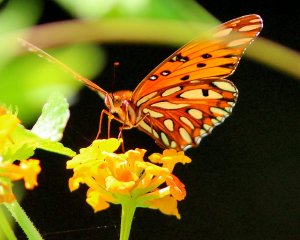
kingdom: Animalia
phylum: Arthropoda
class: Insecta
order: Lepidoptera
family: Nymphalidae
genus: Dione
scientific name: Dione vanillae
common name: Gulf Fritillary
